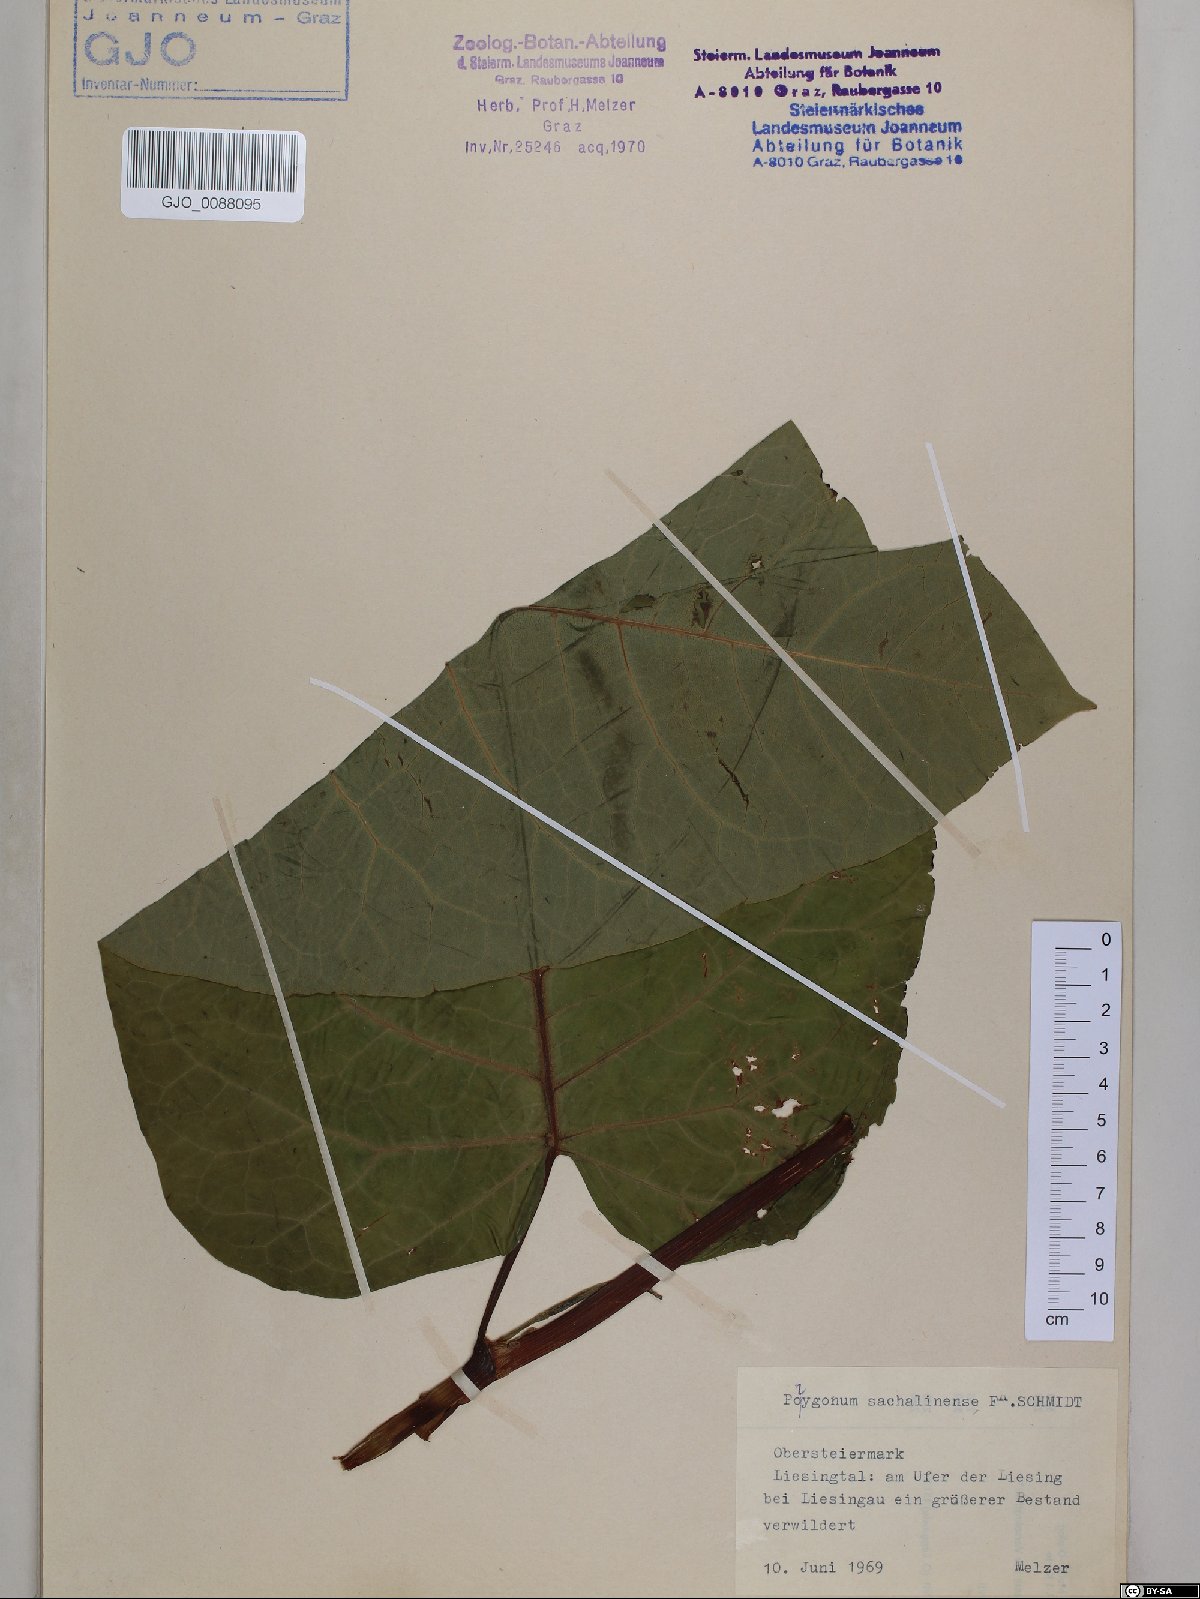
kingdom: Plantae
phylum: Tracheophyta
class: Magnoliopsida
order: Caryophyllales
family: Polygonaceae
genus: Reynoutria
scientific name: Reynoutria sachalinensis
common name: Giant knotweed
